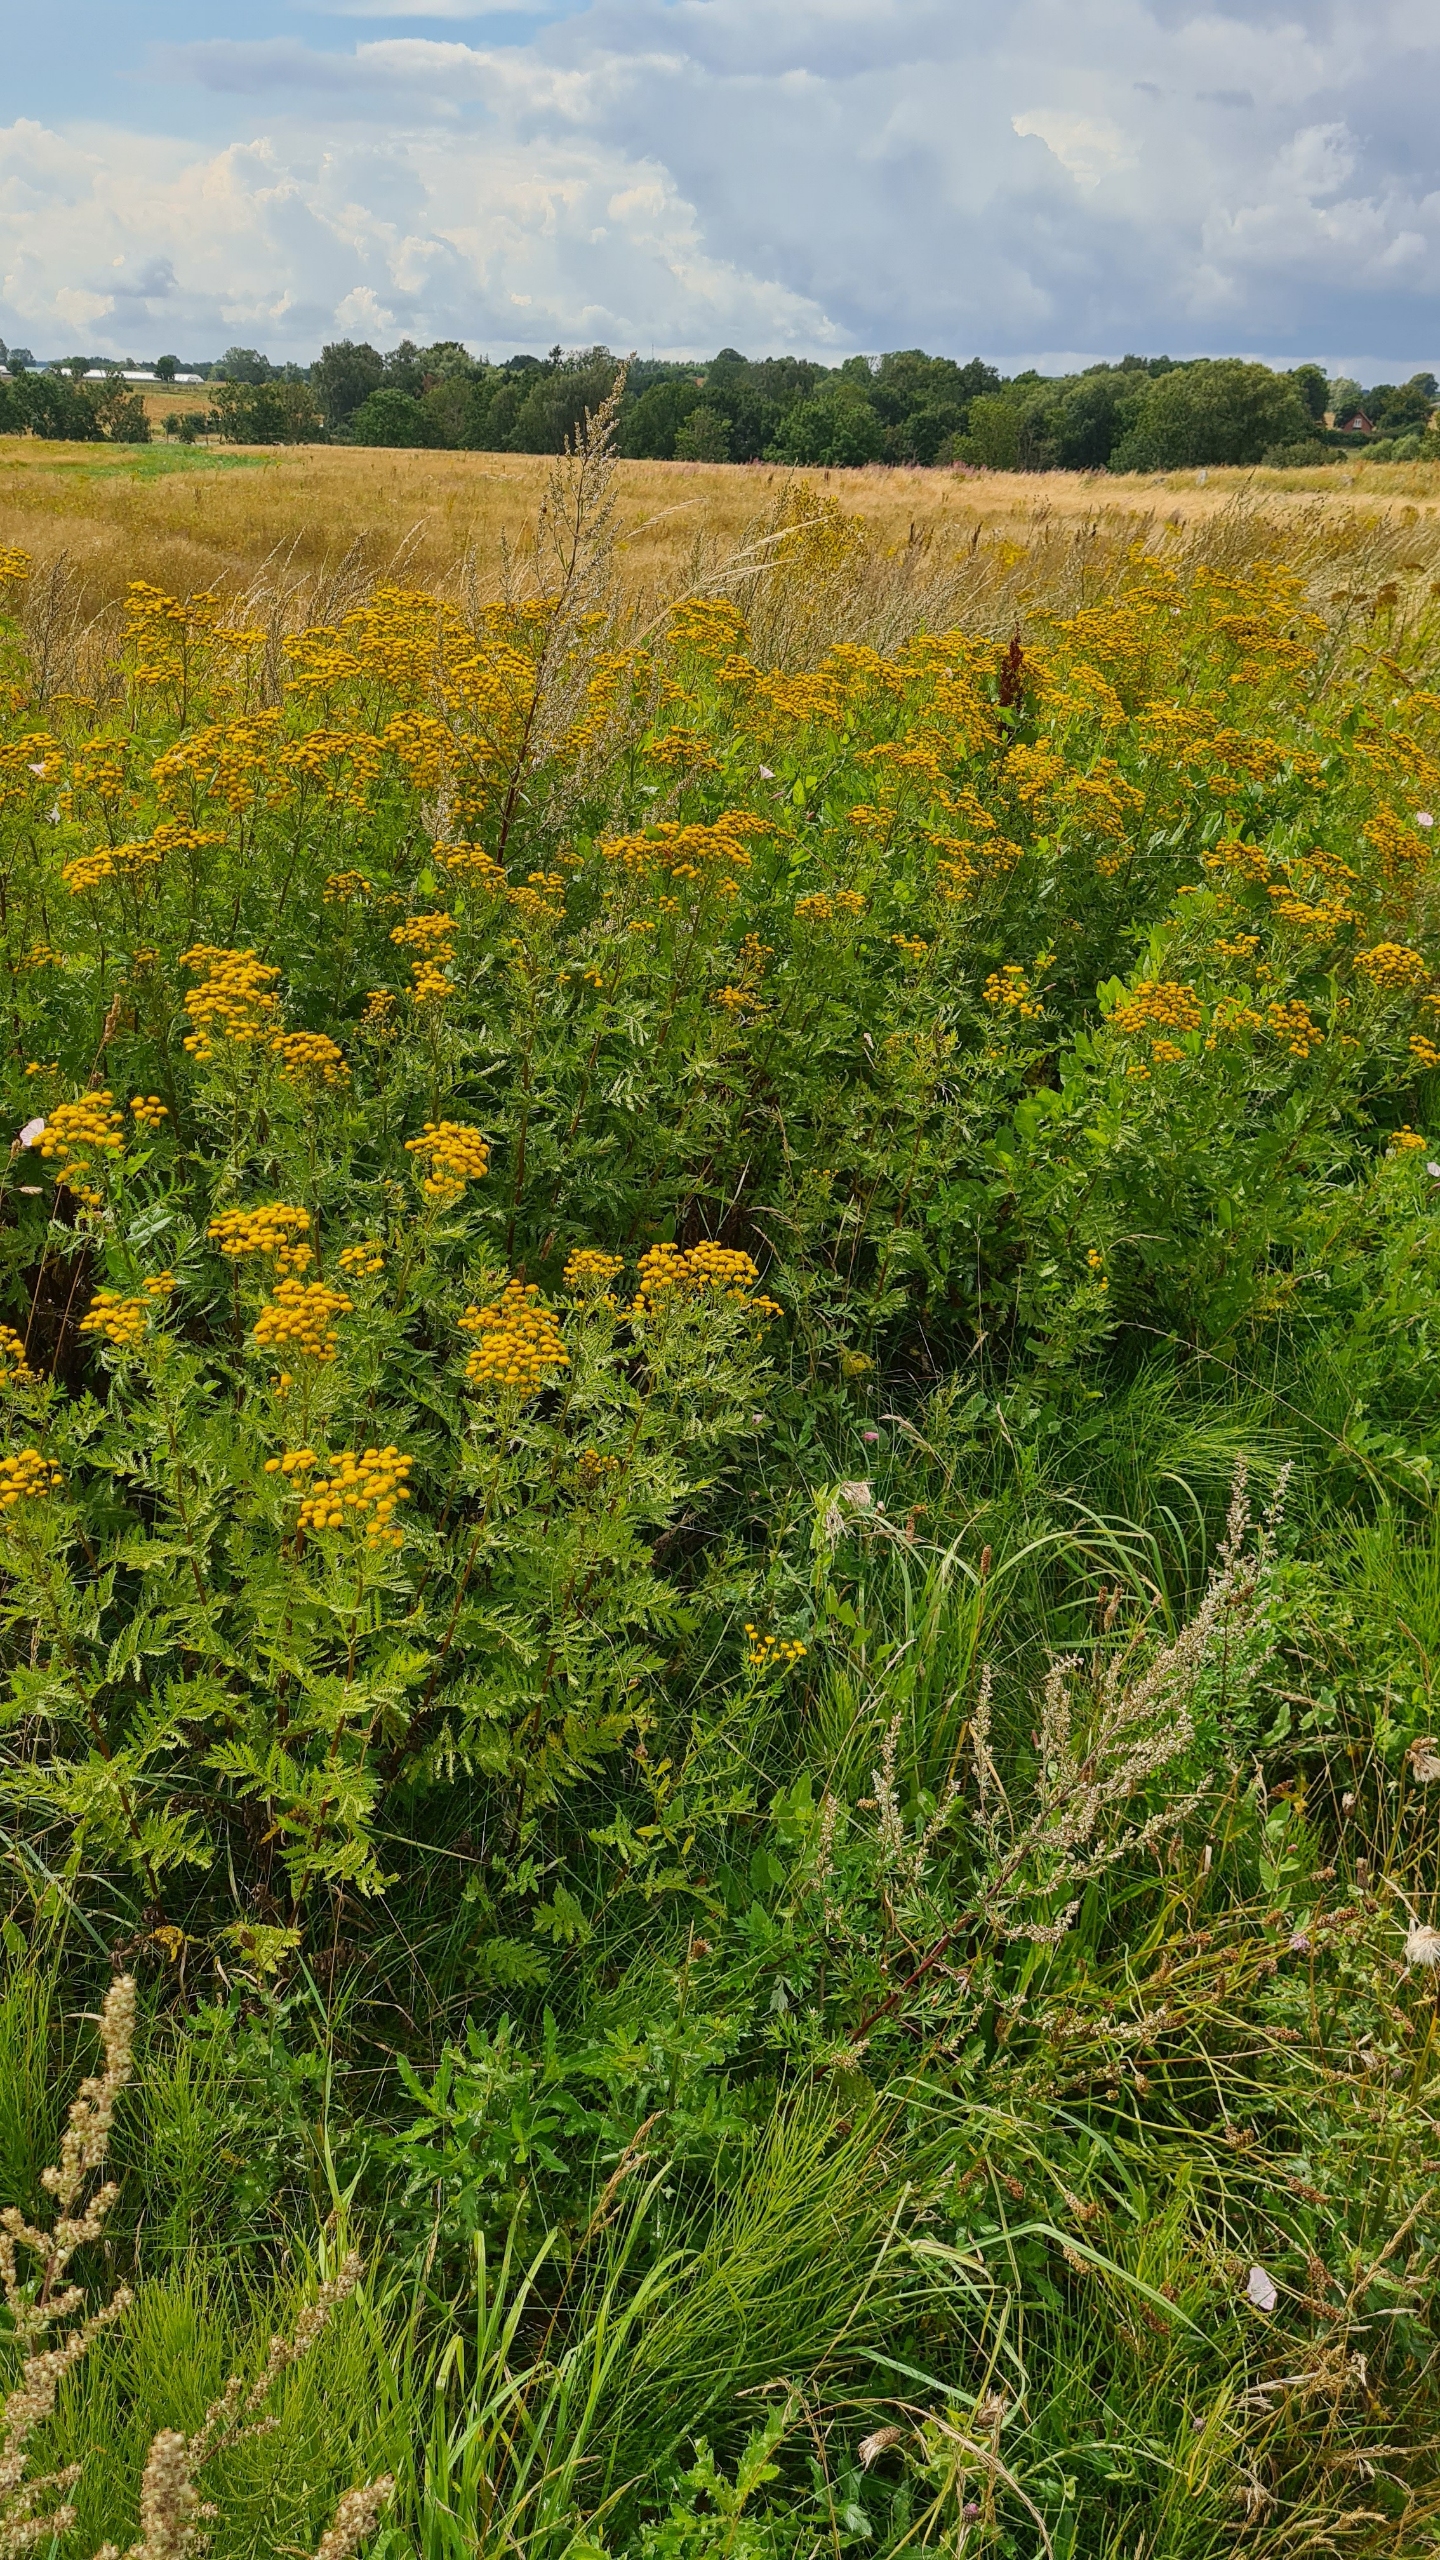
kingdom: Plantae
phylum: Tracheophyta
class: Magnoliopsida
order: Asterales
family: Asteraceae
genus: Tanacetum
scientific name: Tanacetum vulgare
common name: Rejnfan
